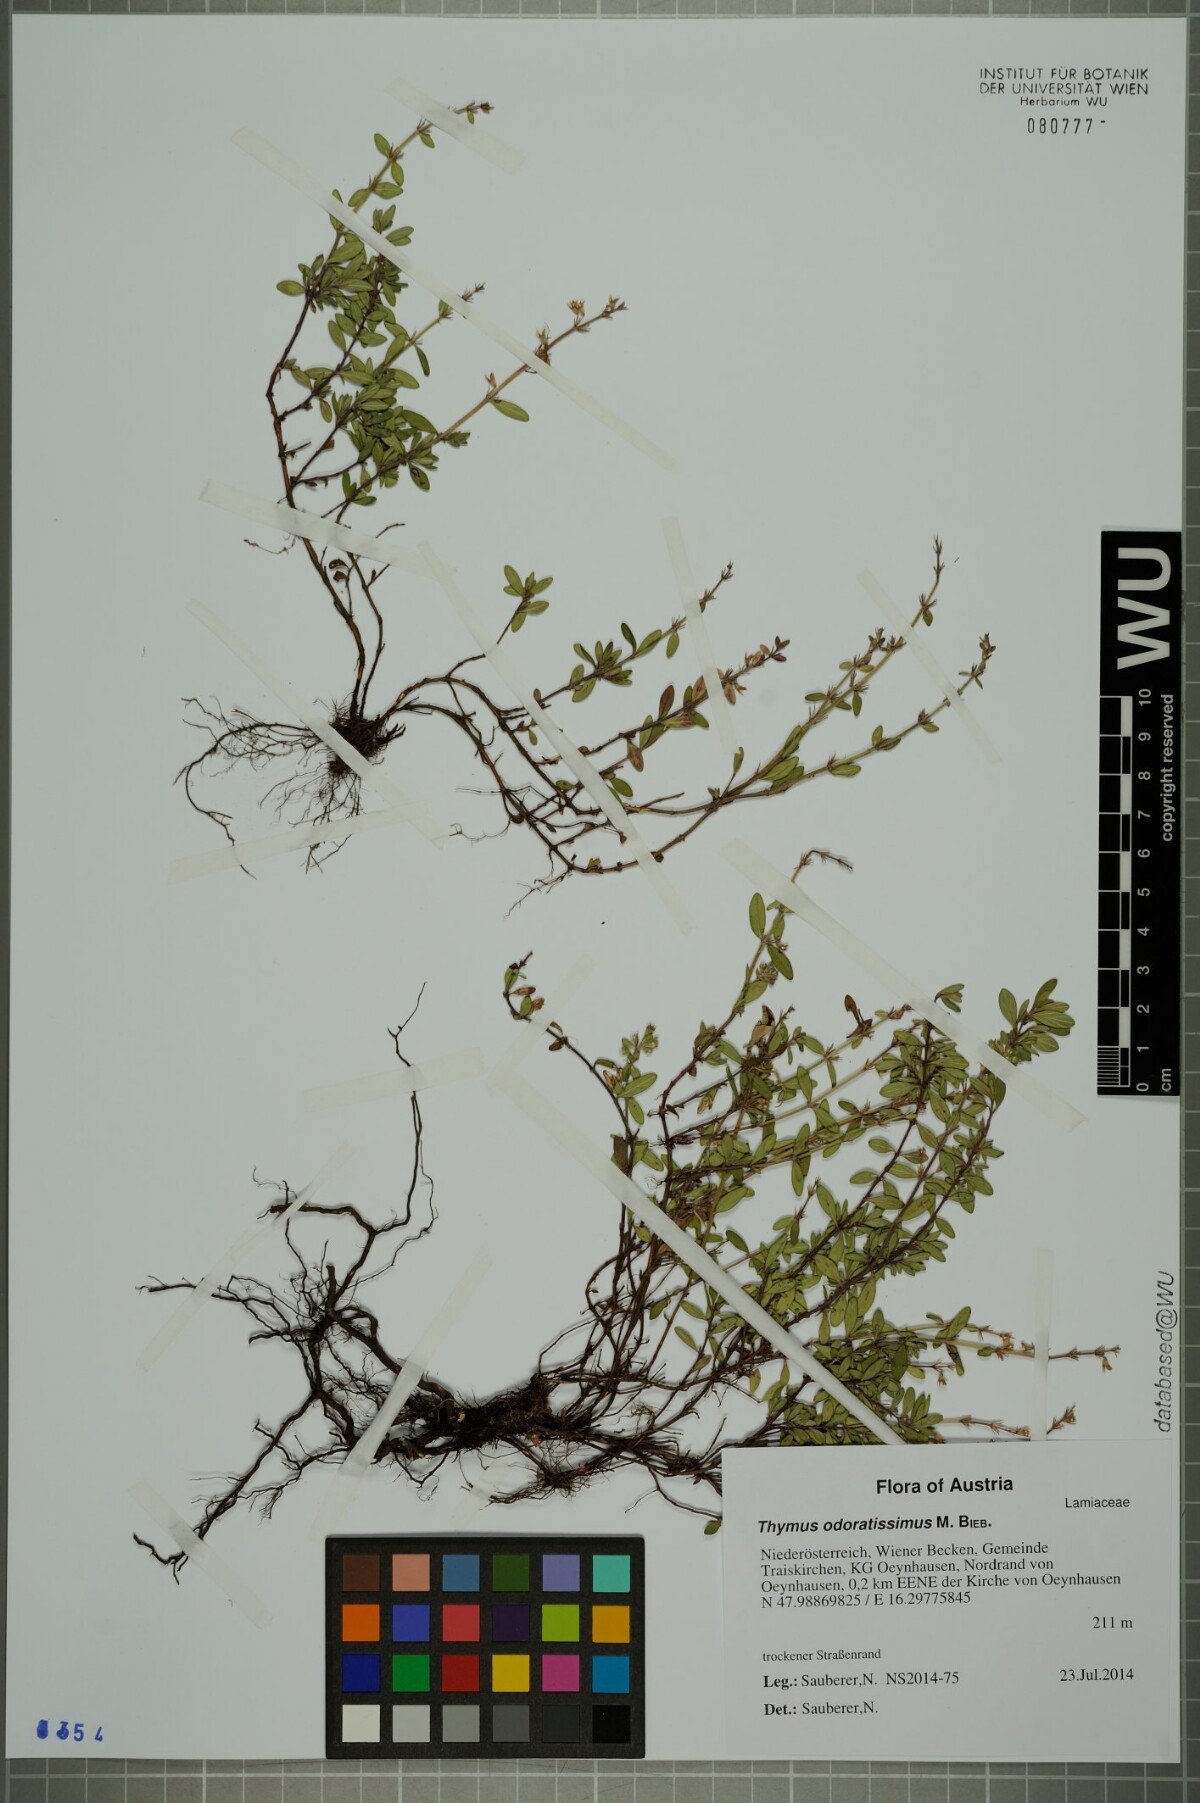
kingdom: Plantae
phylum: Tracheophyta
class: Magnoliopsida
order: Lamiales
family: Lamiaceae
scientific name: Lamiaceae
